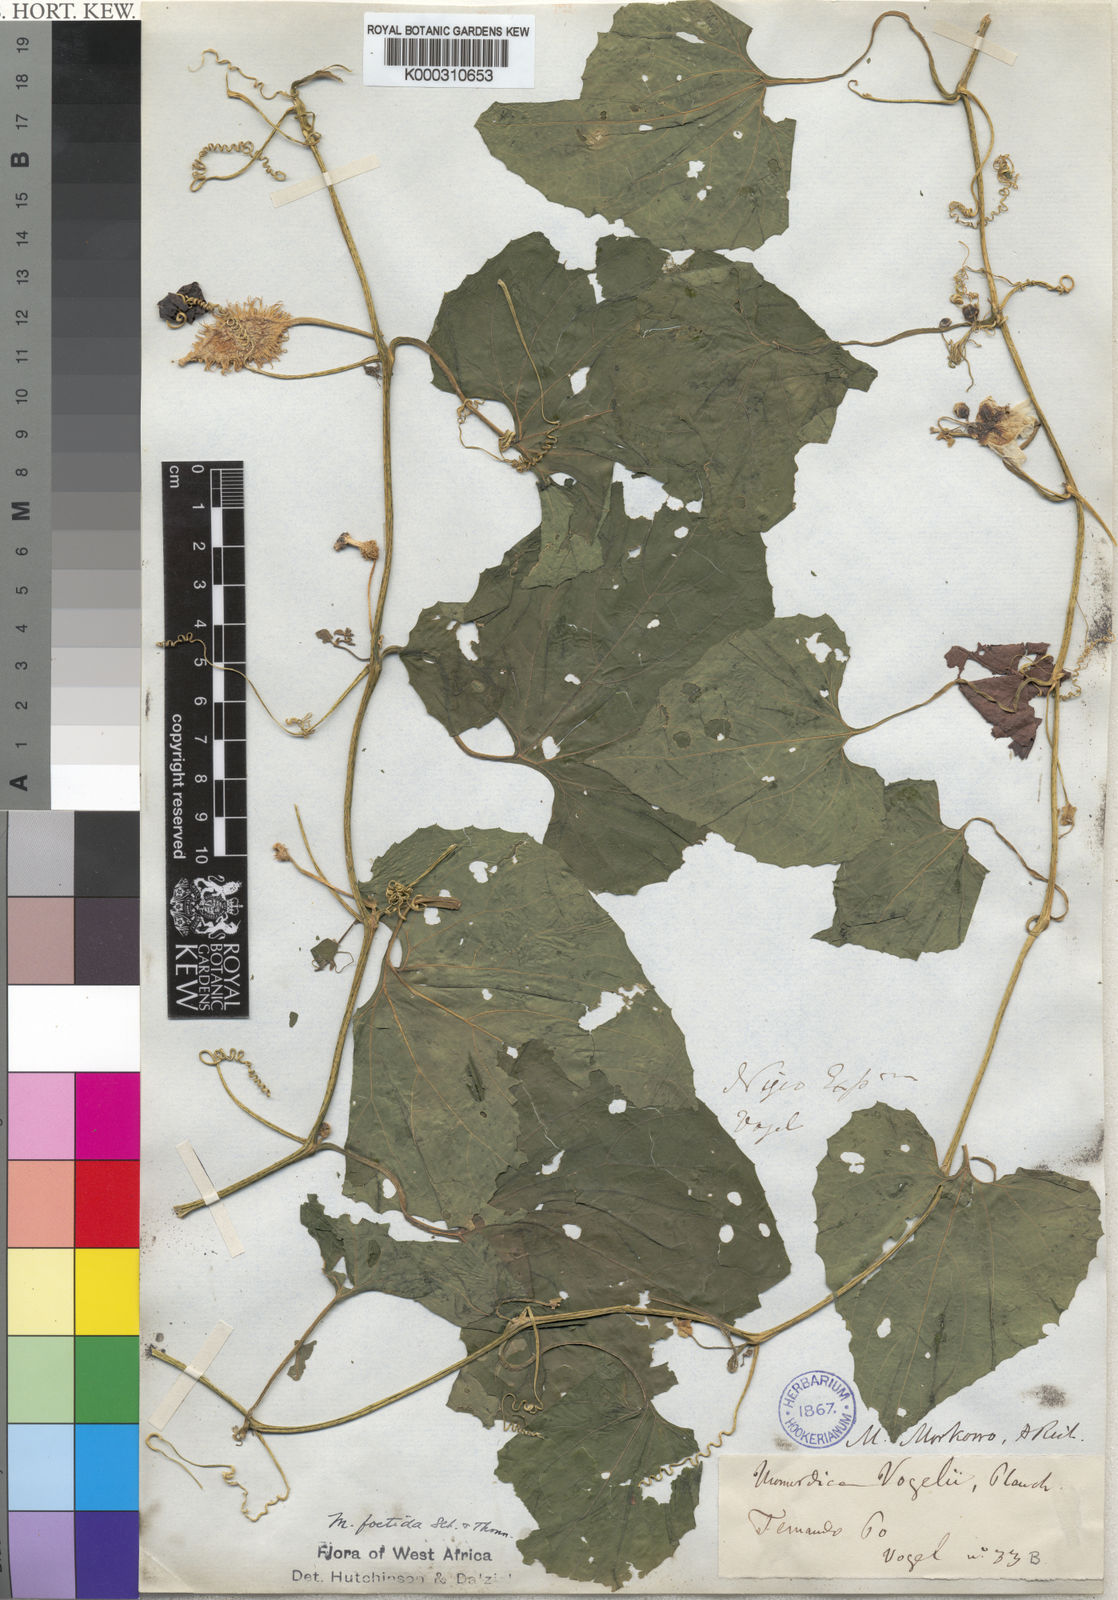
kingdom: Plantae
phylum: Tracheophyta
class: Magnoliopsida
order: Cucurbitales
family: Cucurbitaceae
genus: Momordica
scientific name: Momordica foetida
